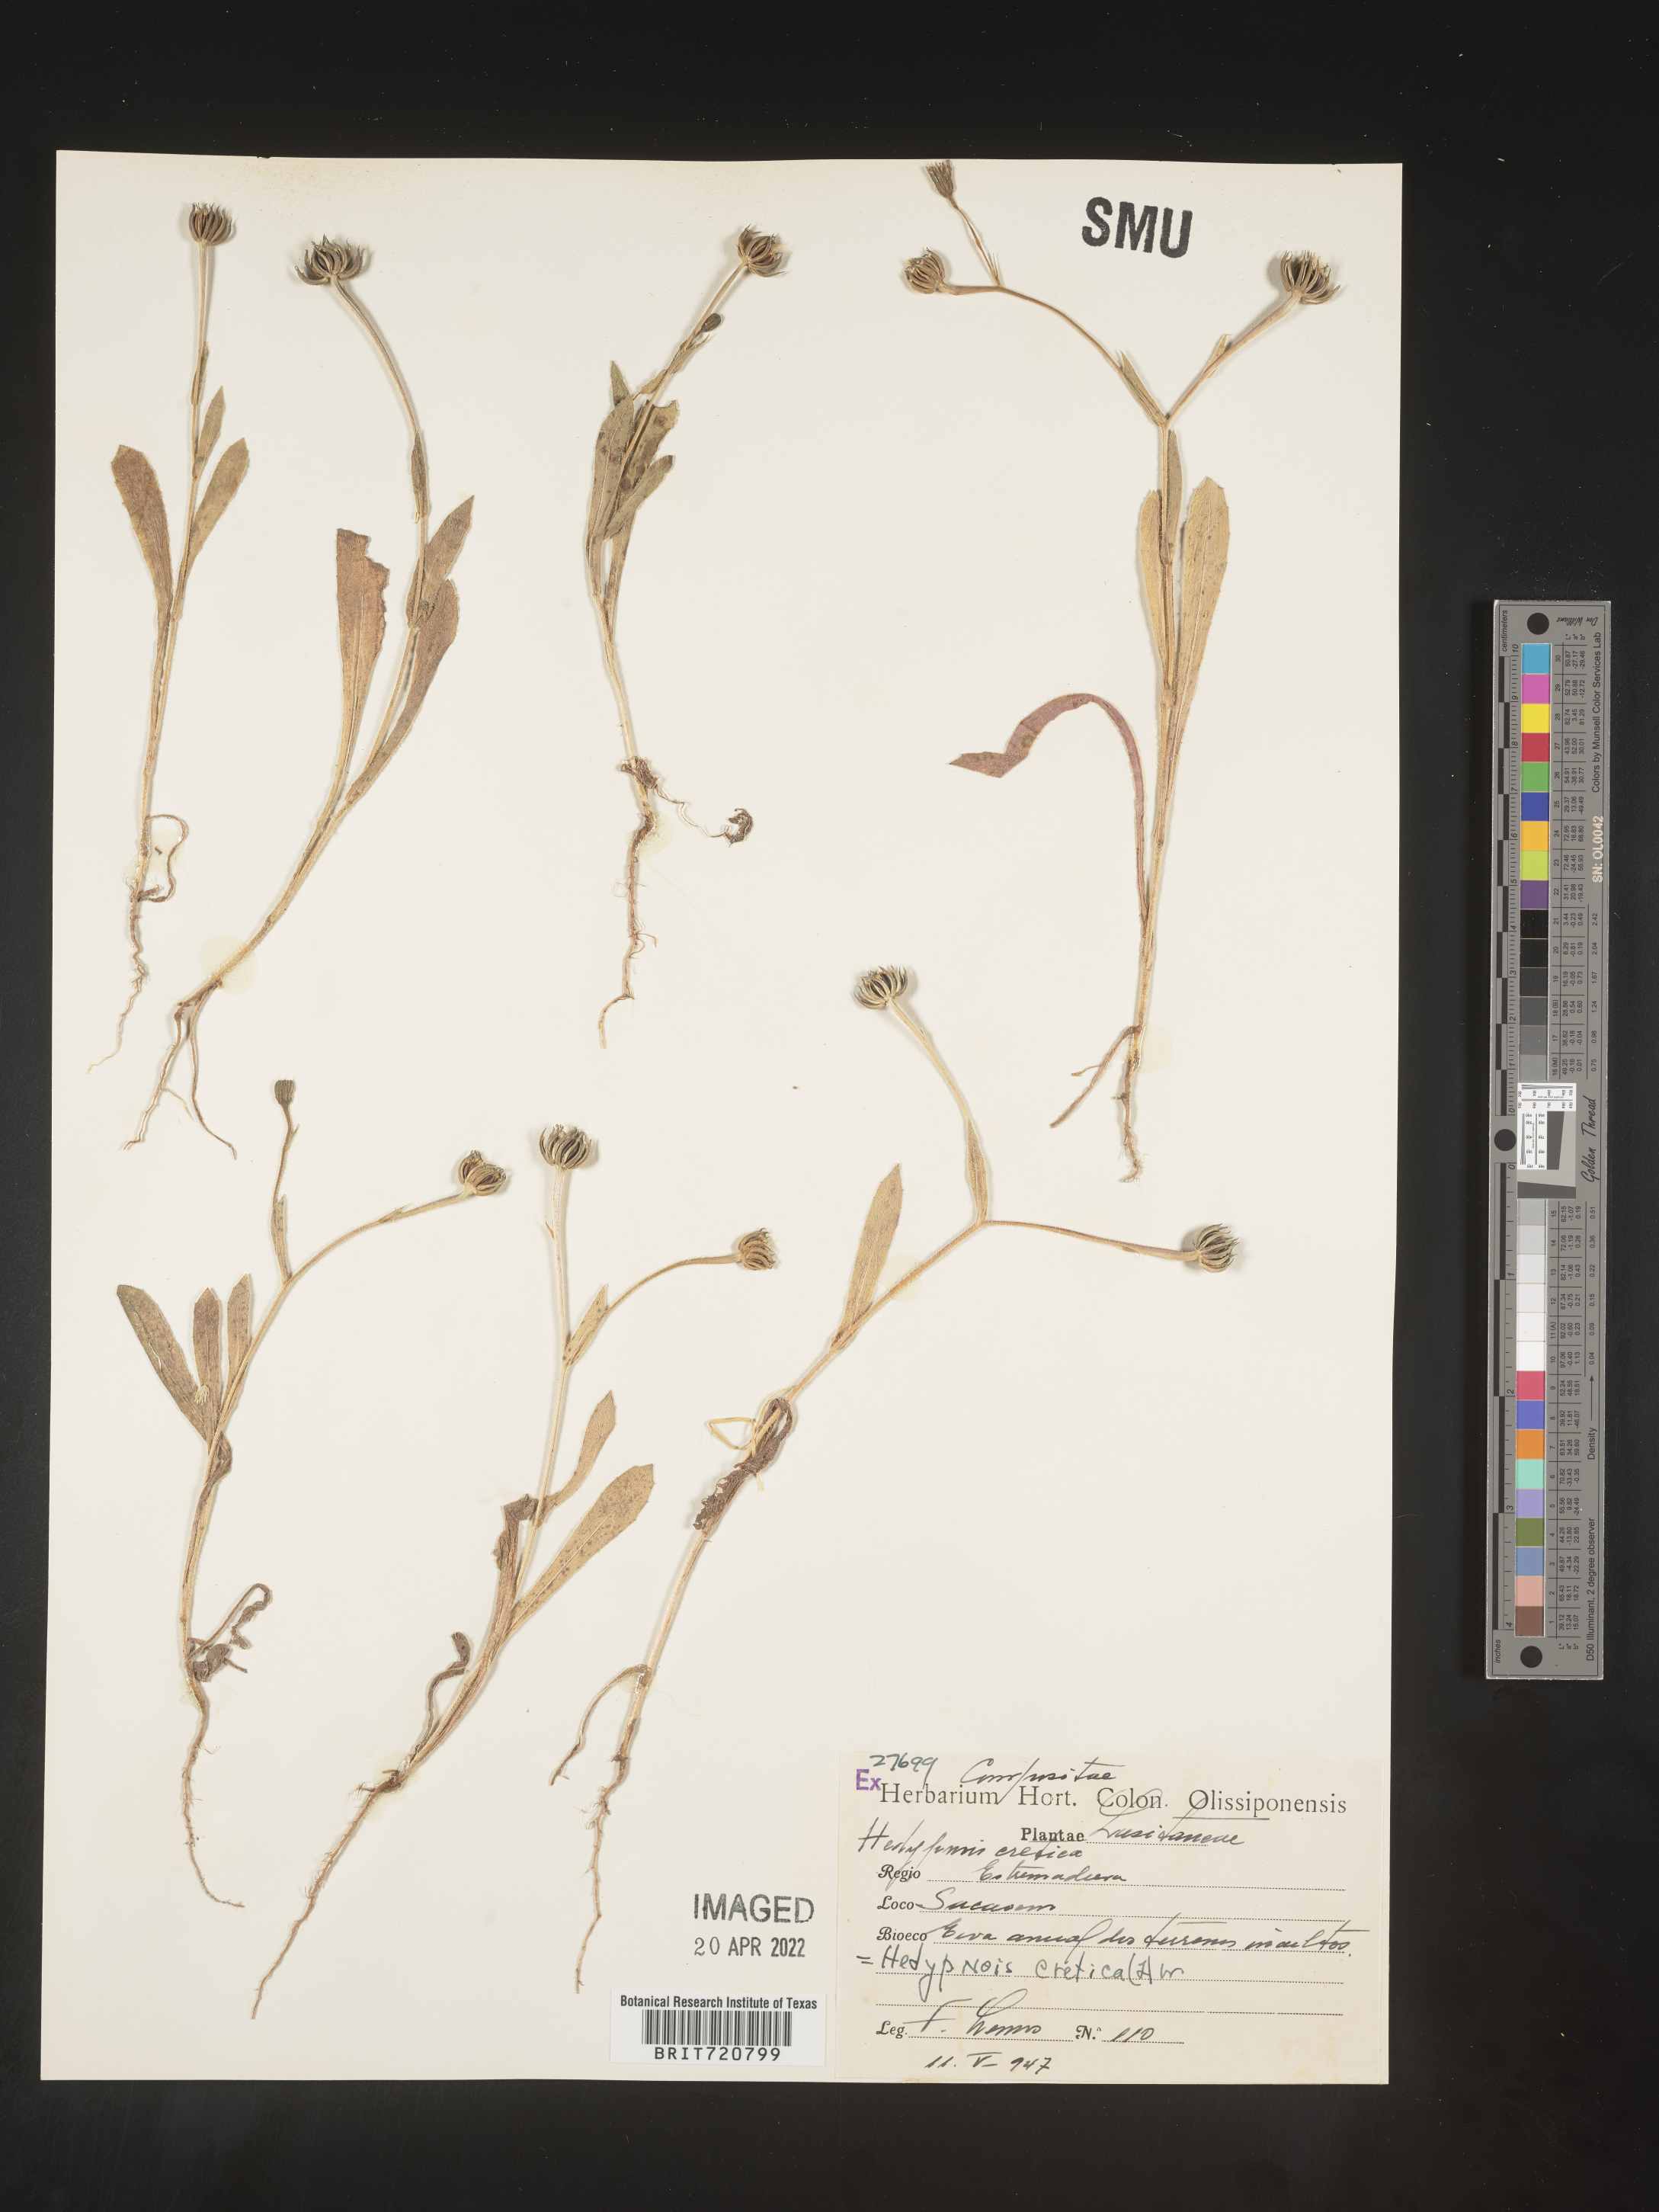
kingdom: Plantae
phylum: Tracheophyta
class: Magnoliopsida
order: Asterales
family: Asteraceae
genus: Hedypnois
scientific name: Hedypnois
